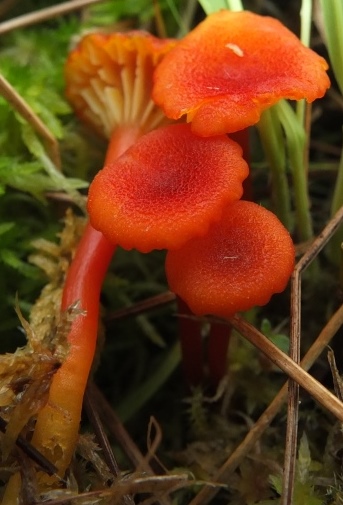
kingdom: Fungi
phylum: Basidiomycota
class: Agaricomycetes
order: Agaricales
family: Hygrophoraceae
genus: Hygrocybe
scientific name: Hygrocybe coccineocrenata
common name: tørvemos-vokshat
